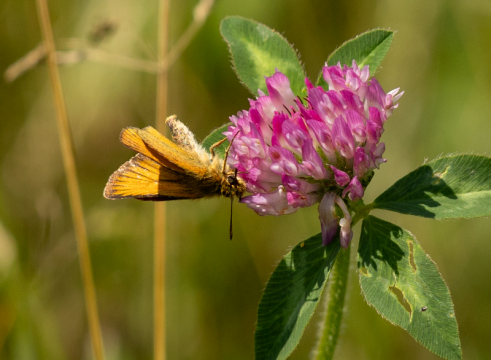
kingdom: Animalia
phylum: Arthropoda
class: Insecta
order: Lepidoptera
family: Hesperiidae
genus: Thymelicus
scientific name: Thymelicus lineola
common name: European Skipper
